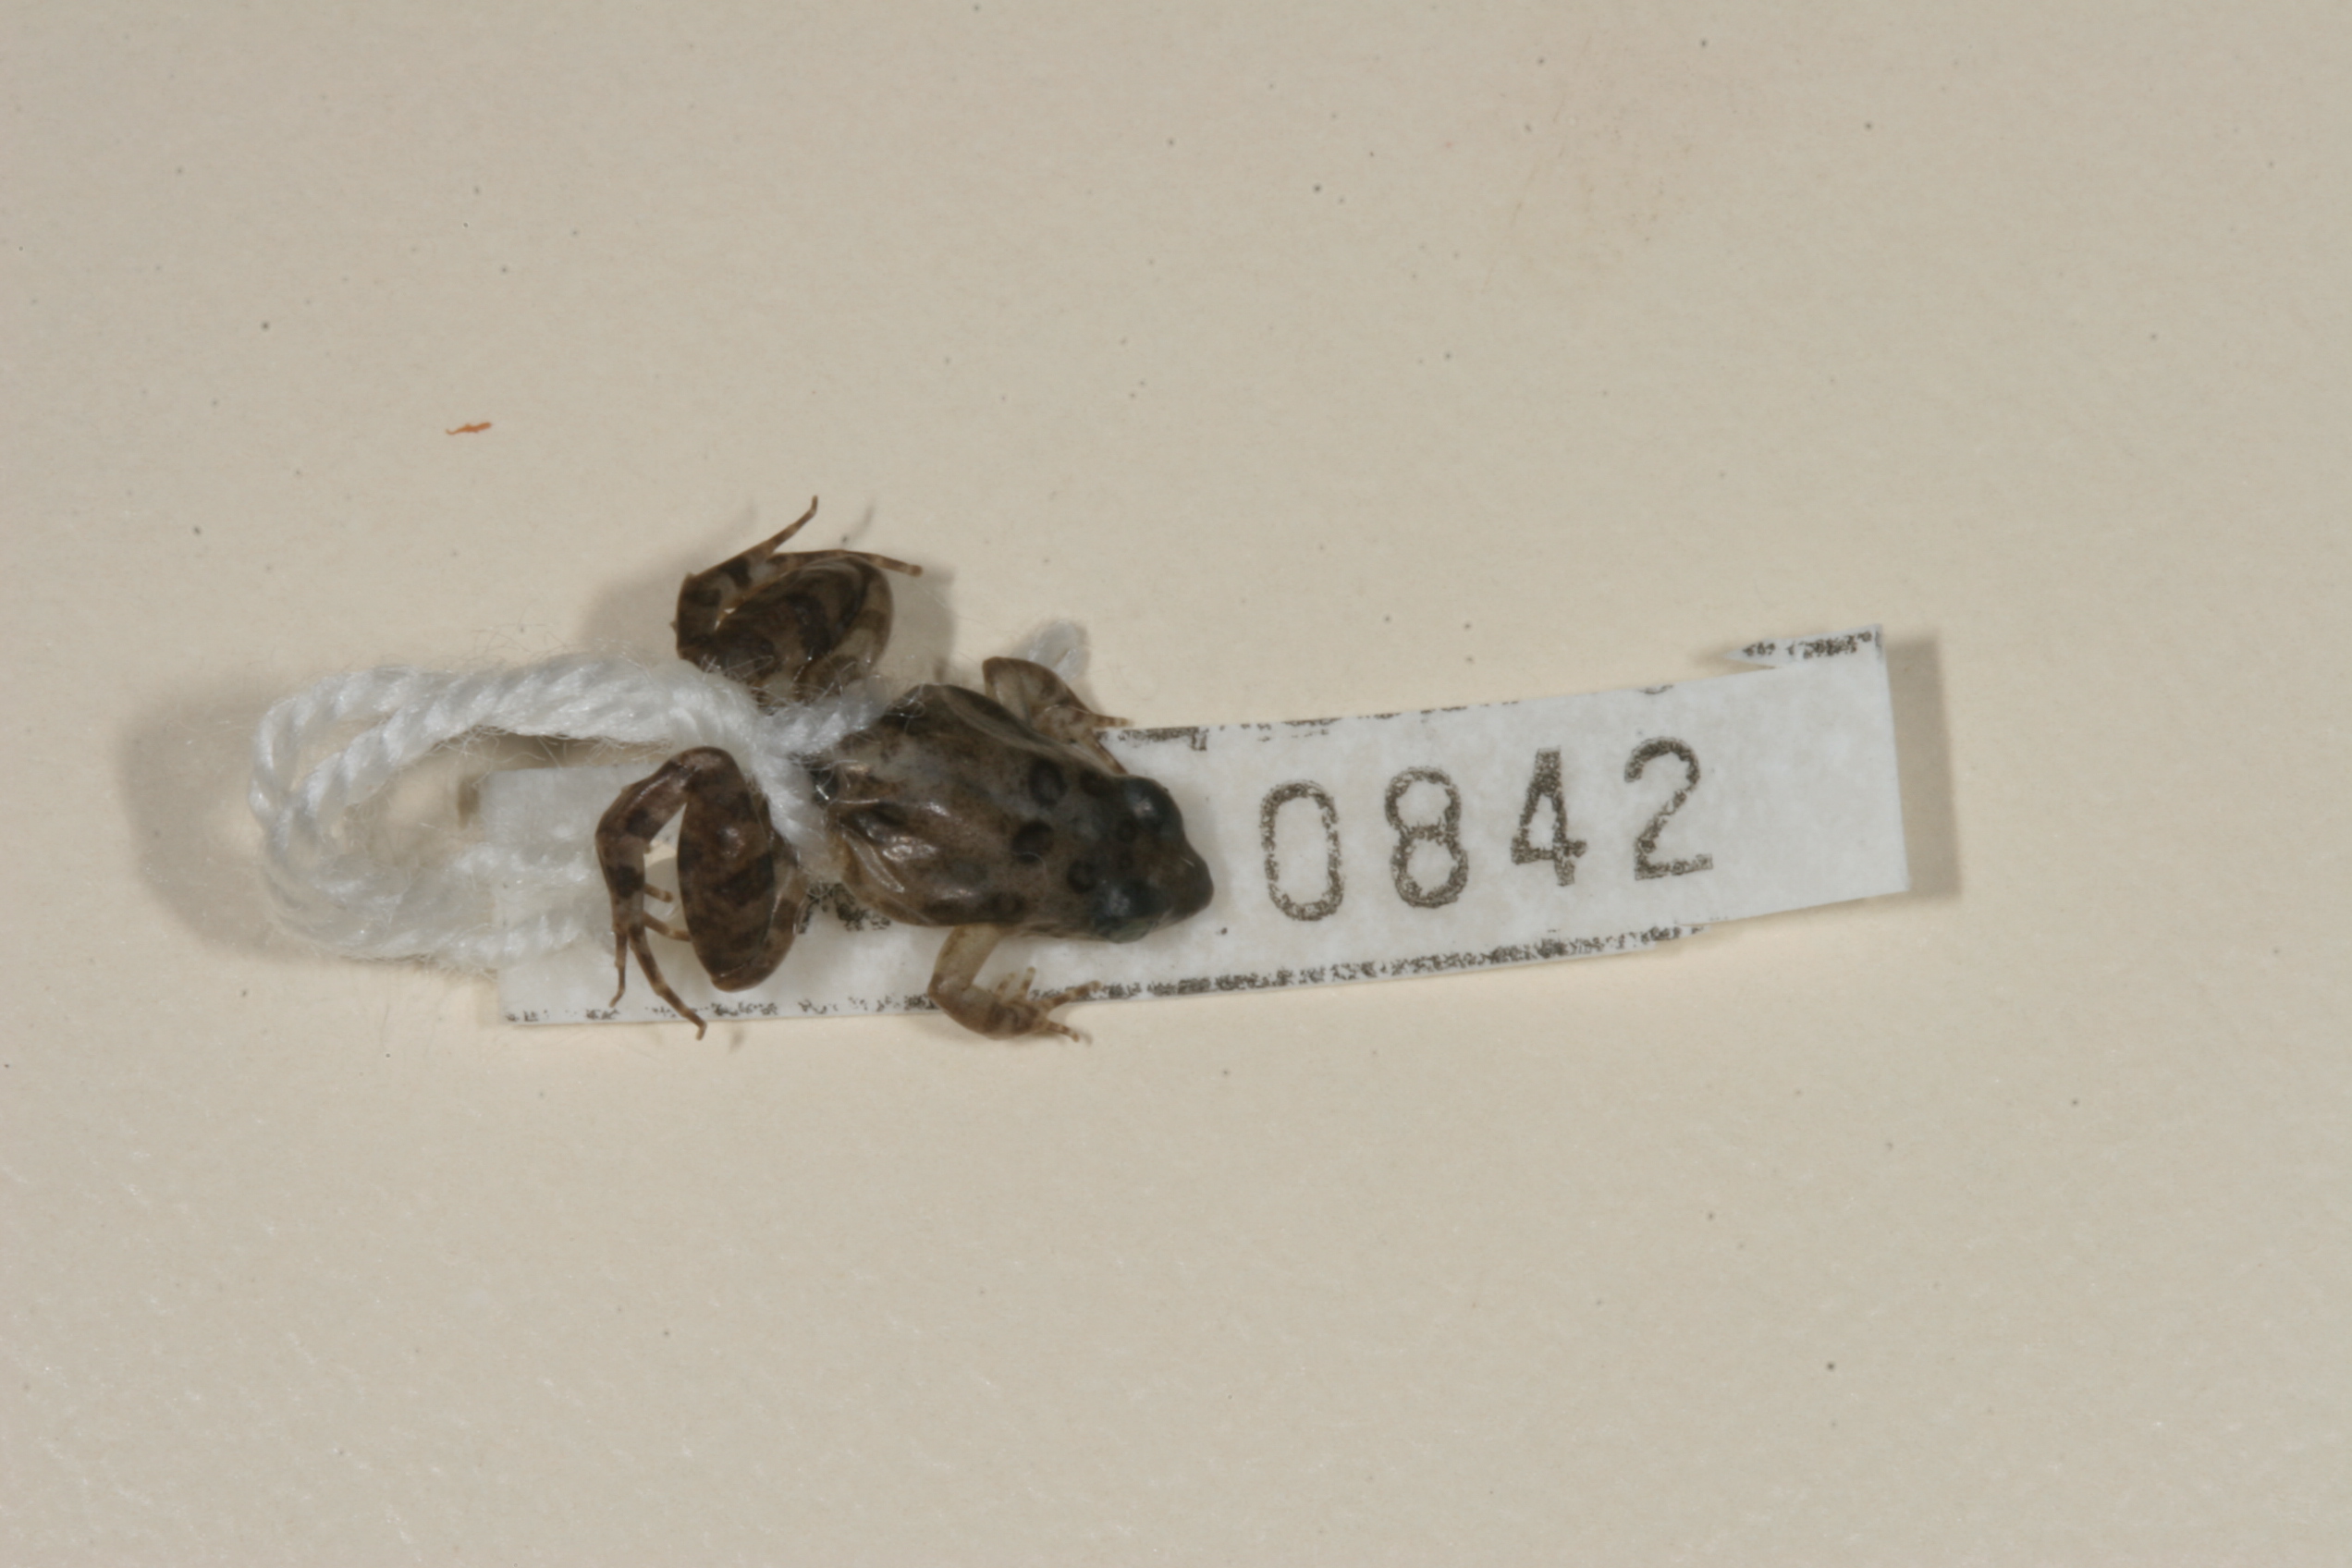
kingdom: Animalia
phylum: Chordata
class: Amphibia
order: Anura
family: Phrynobatrachidae
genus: Phrynobatrachus
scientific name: Phrynobatrachus mababiensis
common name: Dwarf puddle frog
